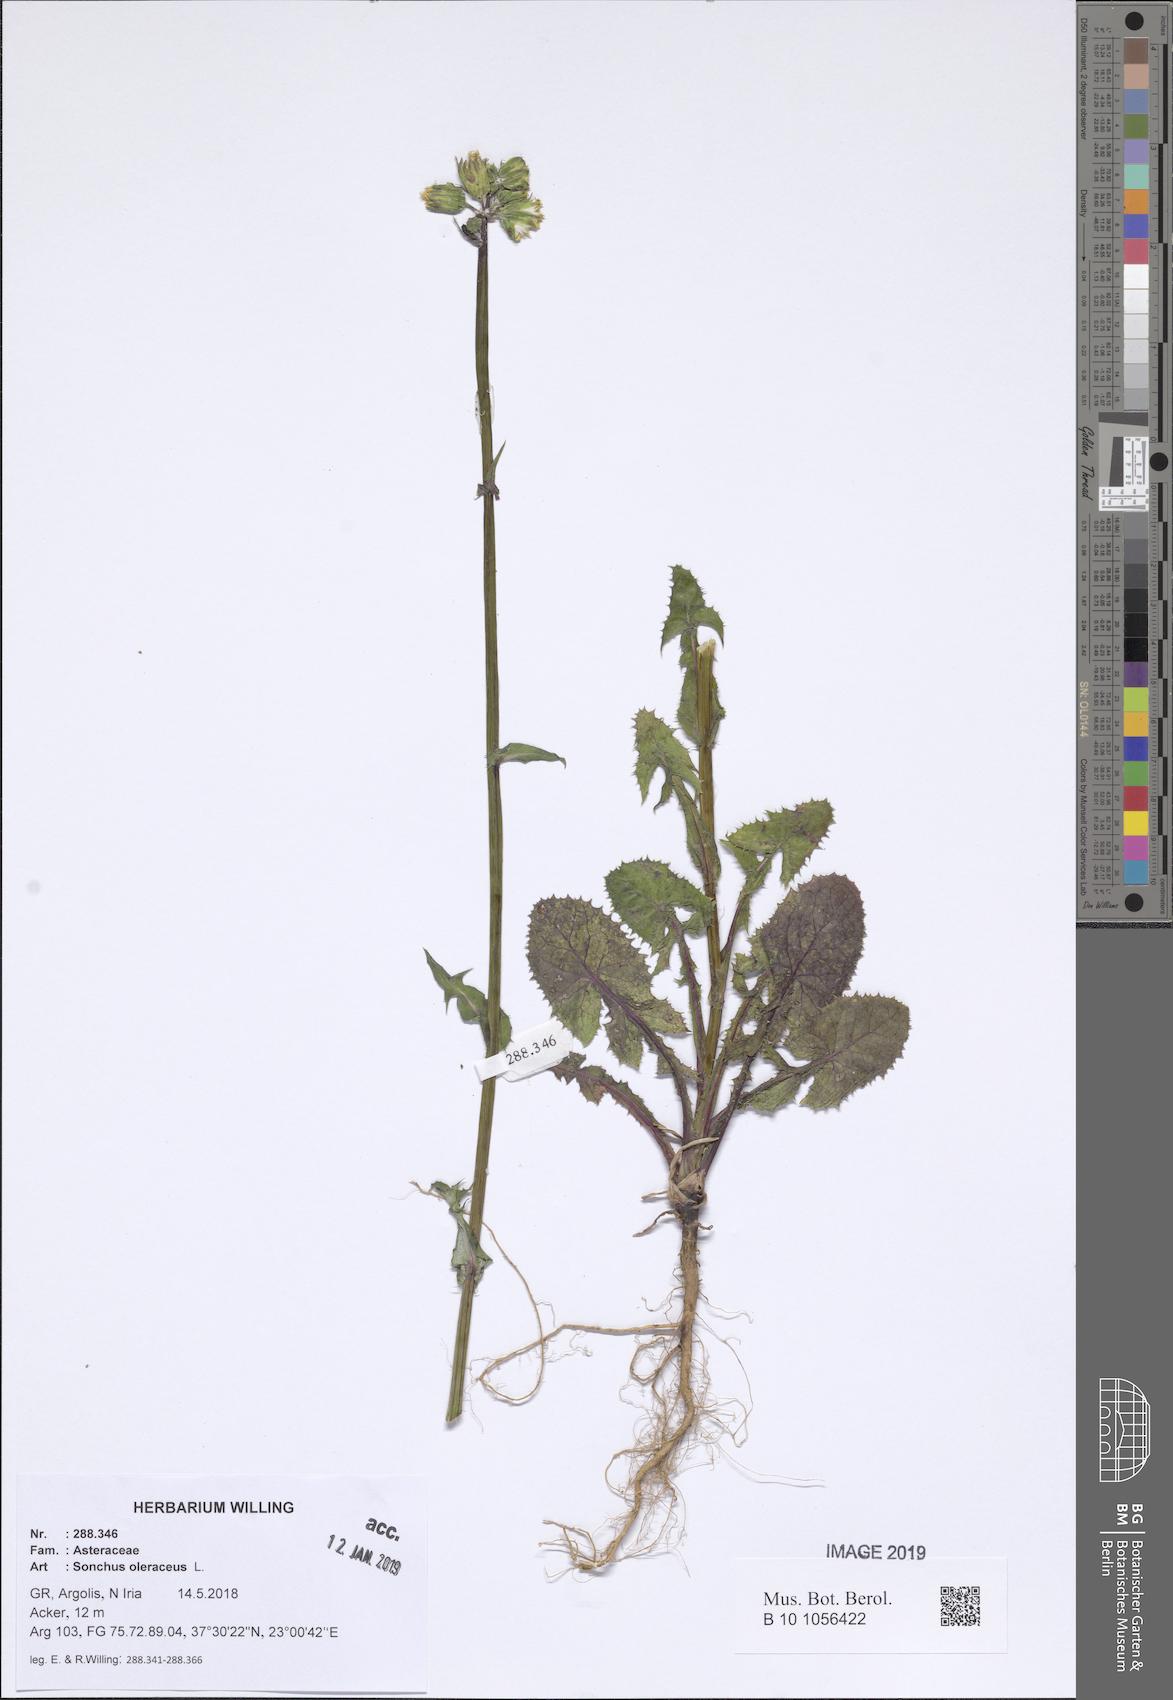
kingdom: Plantae
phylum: Tracheophyta
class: Magnoliopsida
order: Asterales
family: Asteraceae
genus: Sonchus
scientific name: Sonchus oleraceus
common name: Common sowthistle
